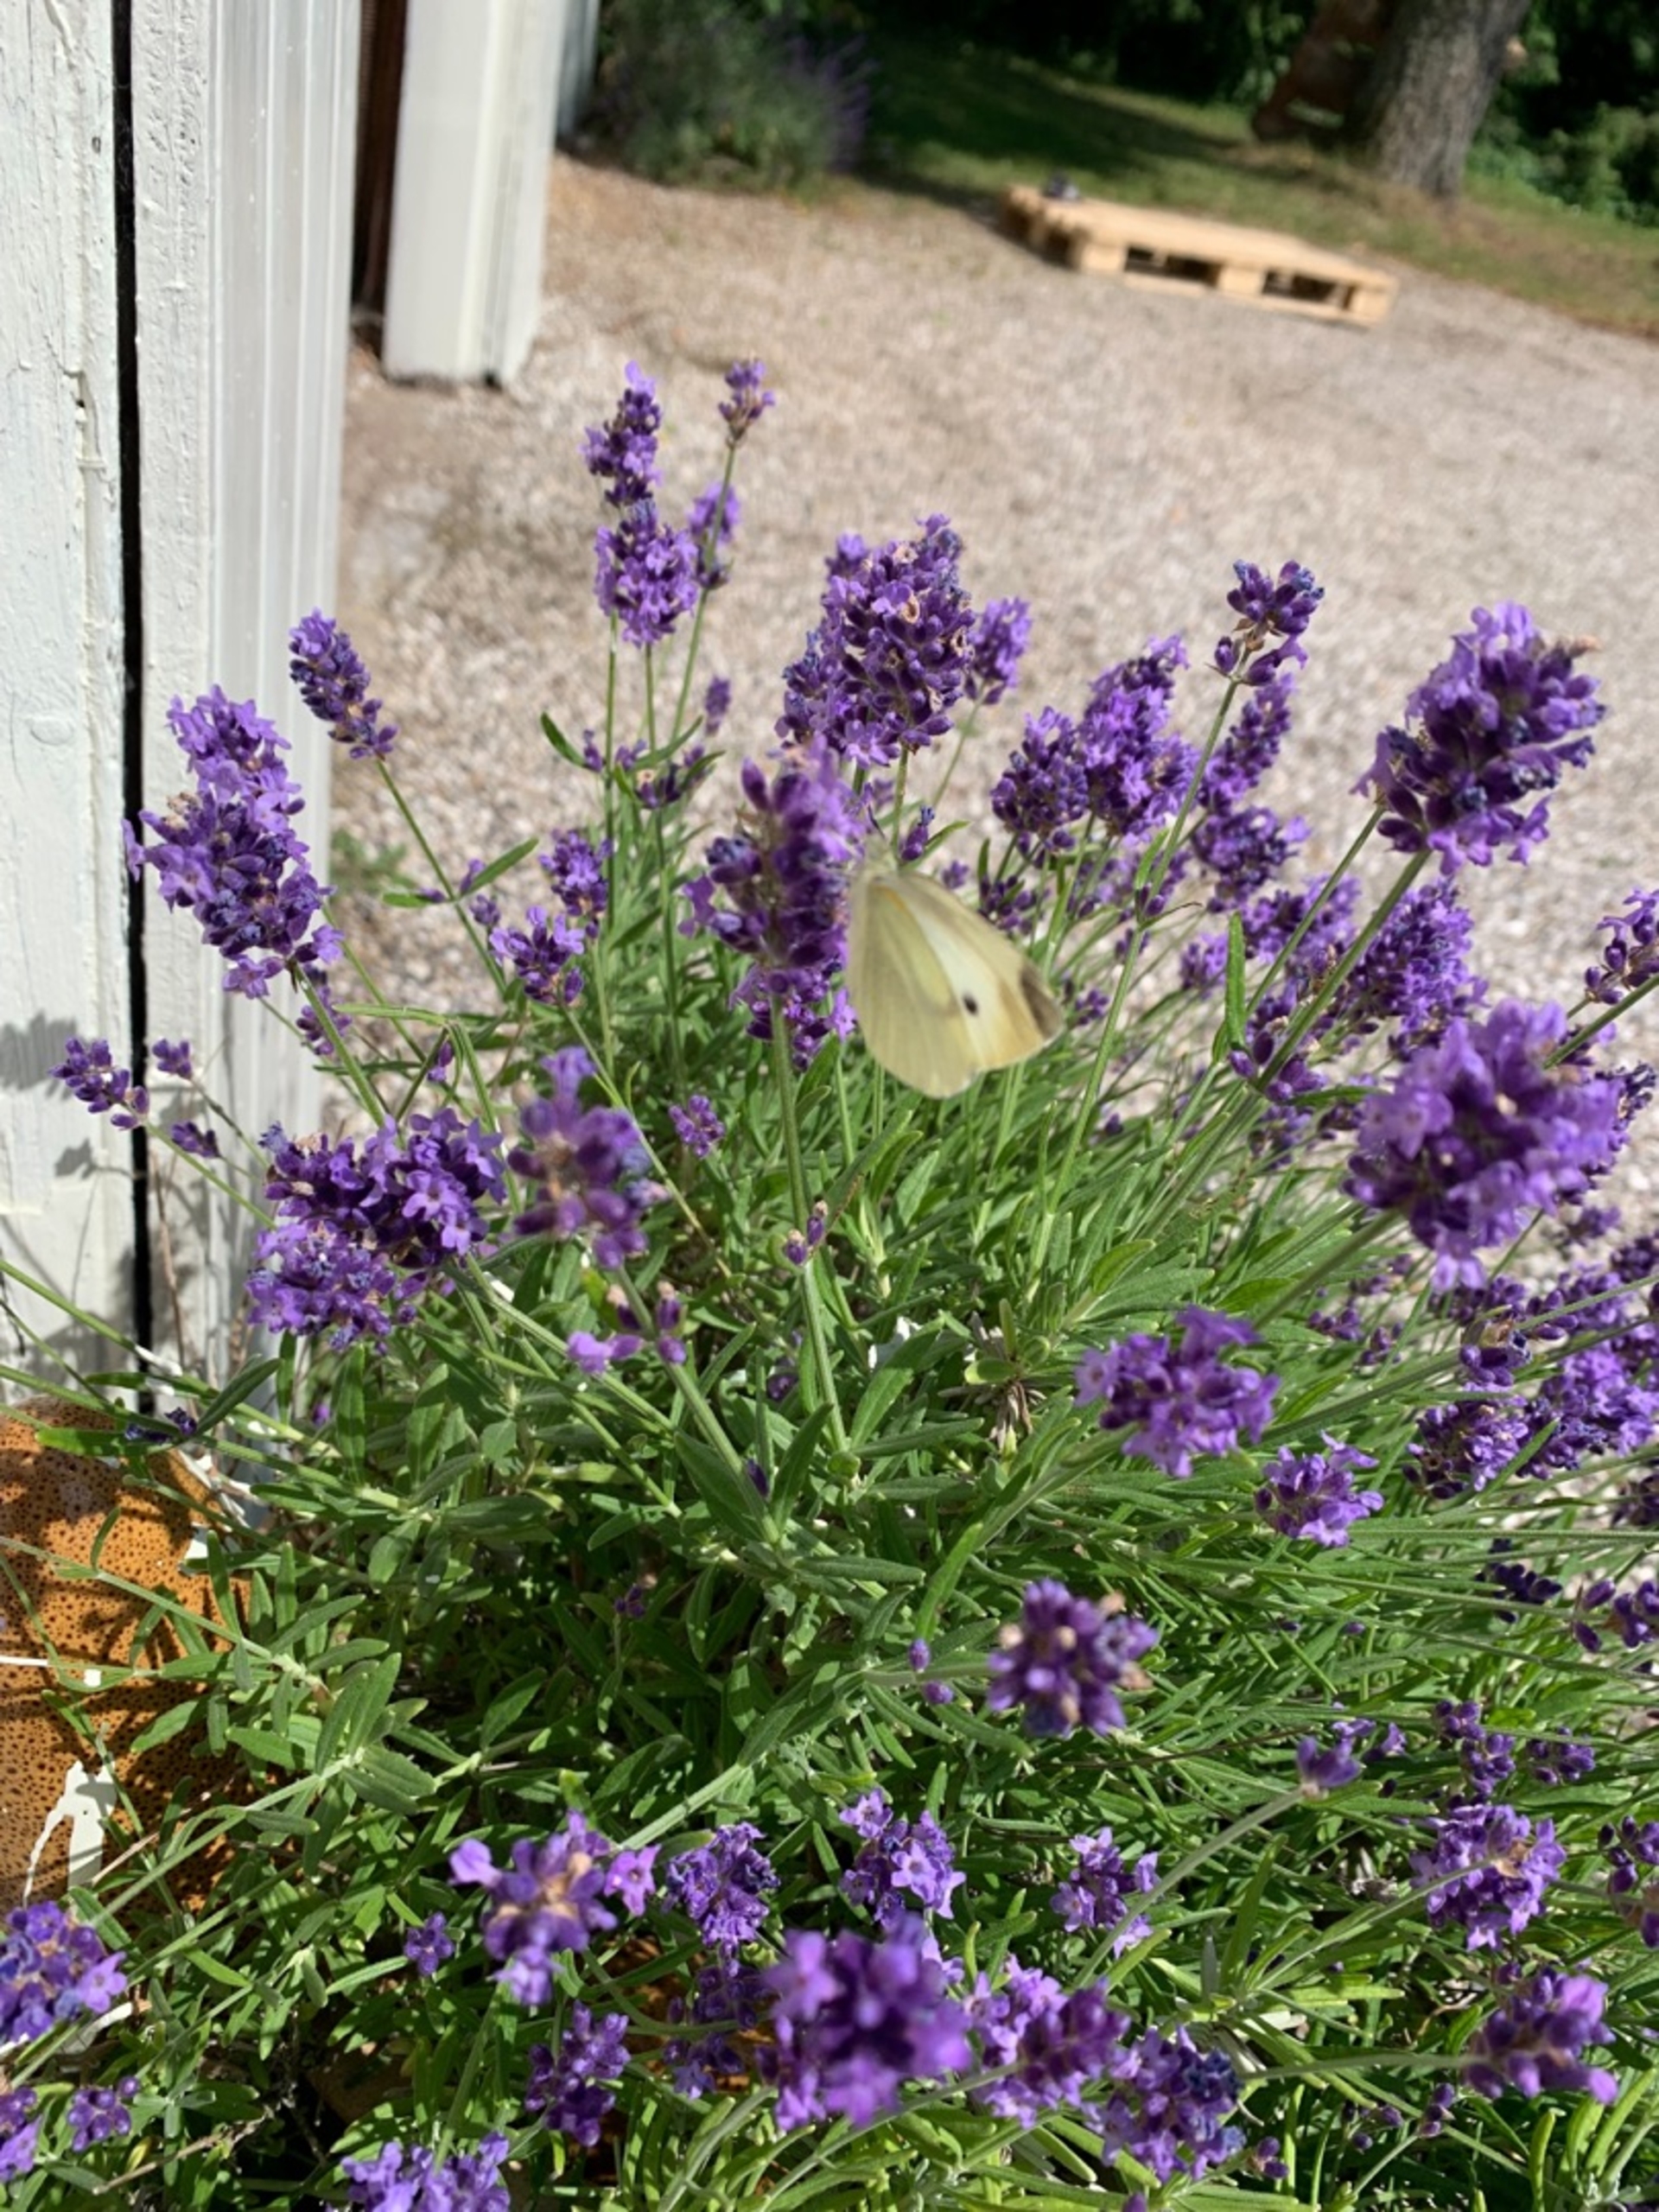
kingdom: Animalia
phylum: Arthropoda
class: Insecta
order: Lepidoptera
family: Pieridae
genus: Pieris
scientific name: Pieris rapae
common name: Lille kålsommerfugl
